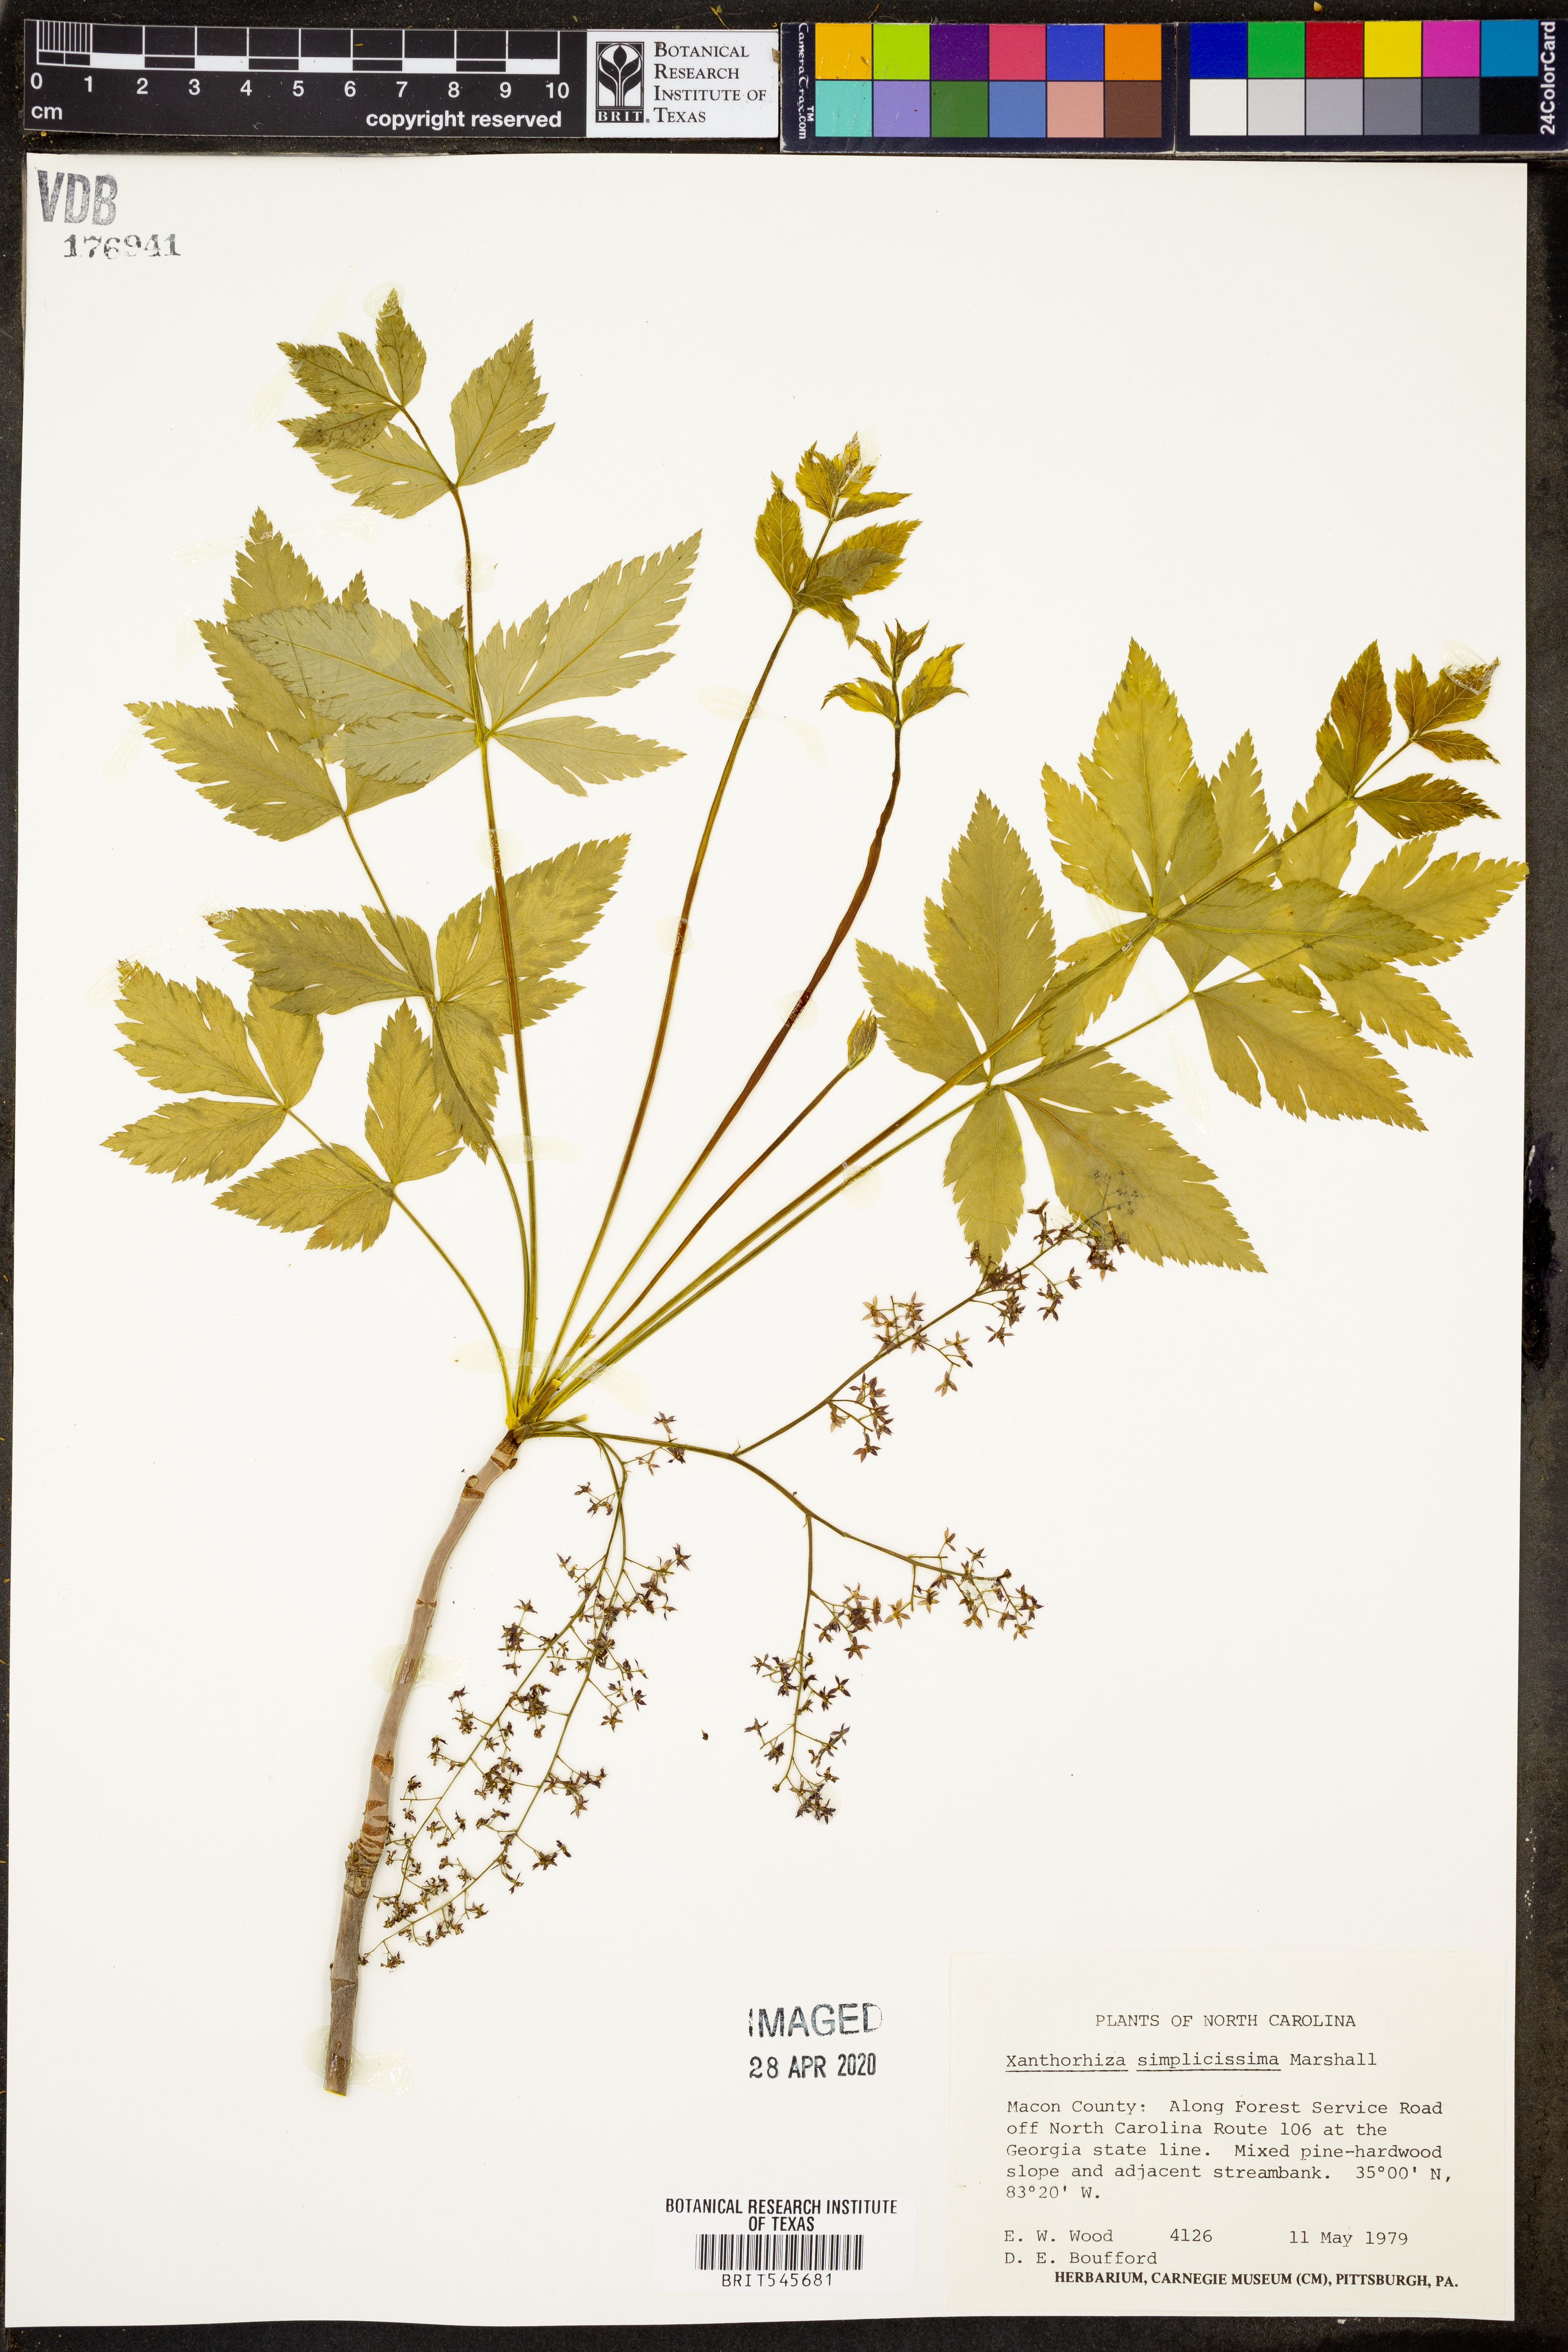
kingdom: Plantae
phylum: Tracheophyta
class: Magnoliopsida
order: Ranunculales
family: Ranunculaceae
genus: Xanthorhiza
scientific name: Xanthorhiza simplicissima
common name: Yellowroot
